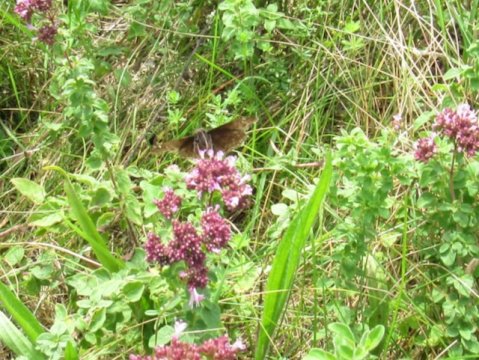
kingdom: Animalia
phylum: Arthropoda
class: Insecta
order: Lepidoptera
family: Hesperiidae
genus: Gesta
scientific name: Gesta
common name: Wild Indigo Duskywing
